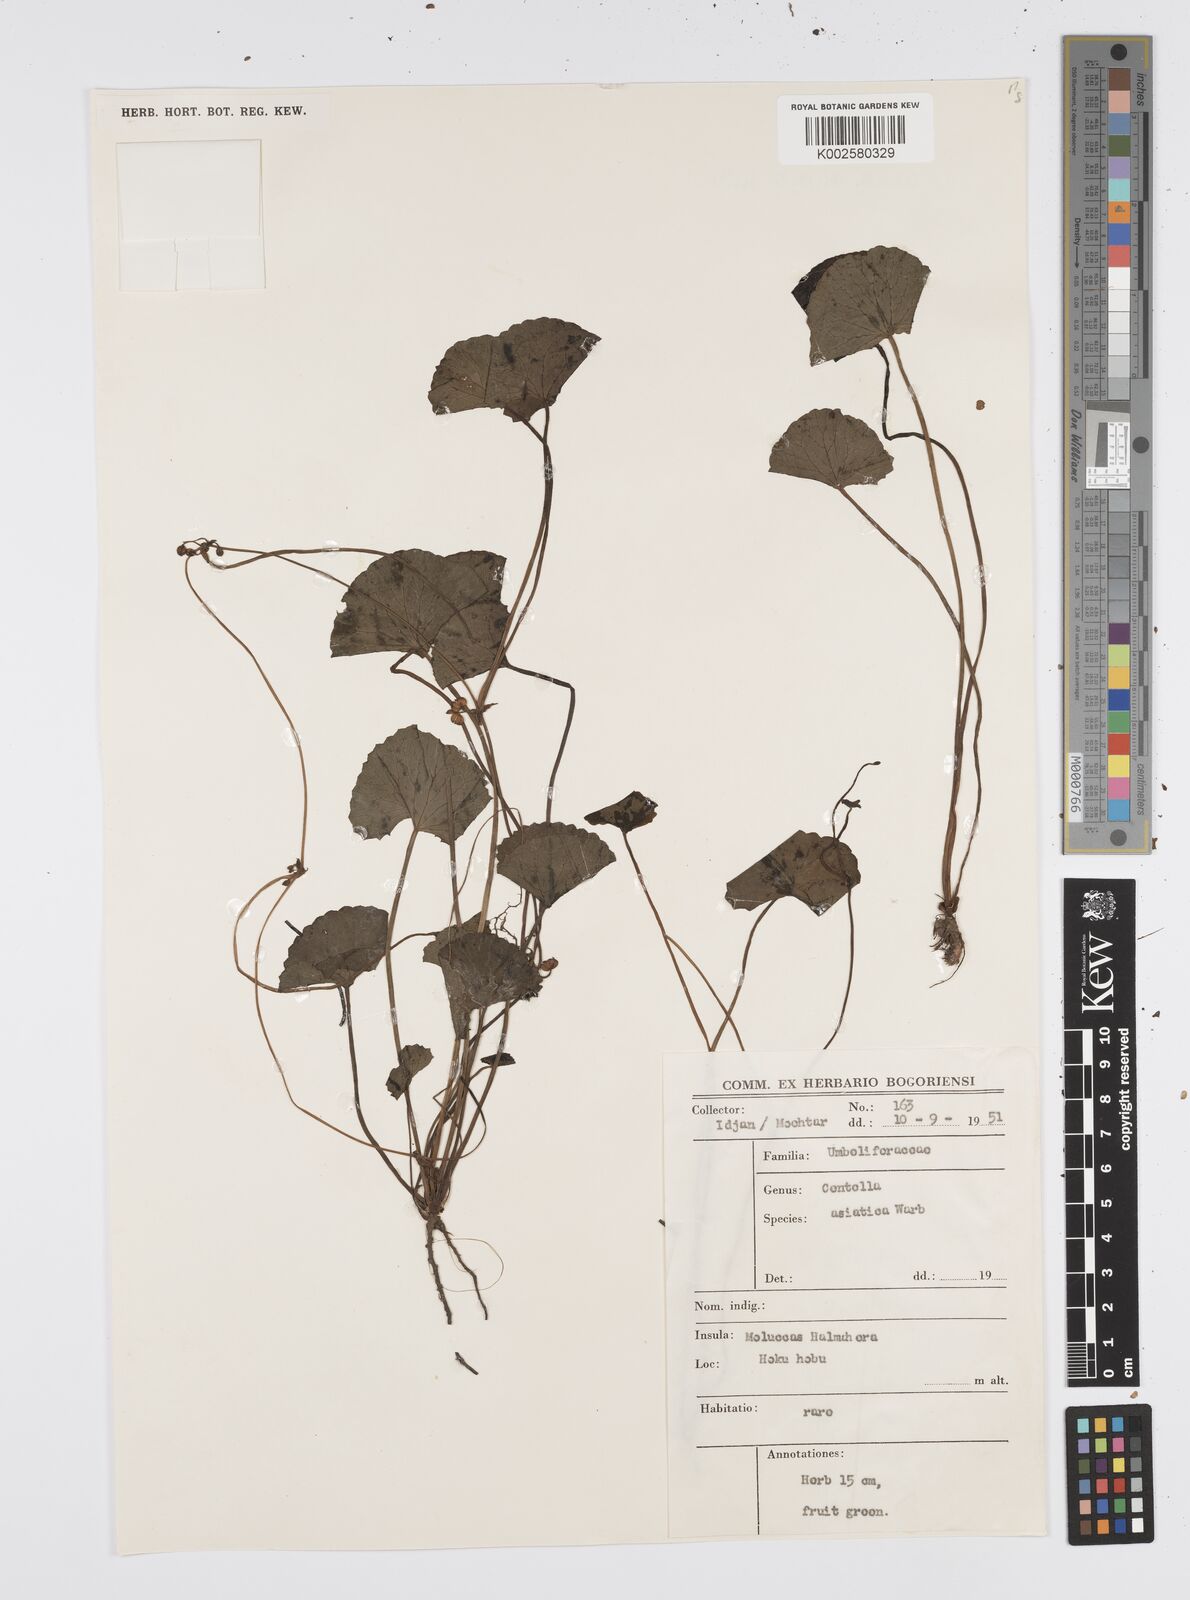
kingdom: Plantae
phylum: Tracheophyta
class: Magnoliopsida
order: Apiales
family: Apiaceae
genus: Centella
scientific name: Centella asiatica
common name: Spadeleaf
